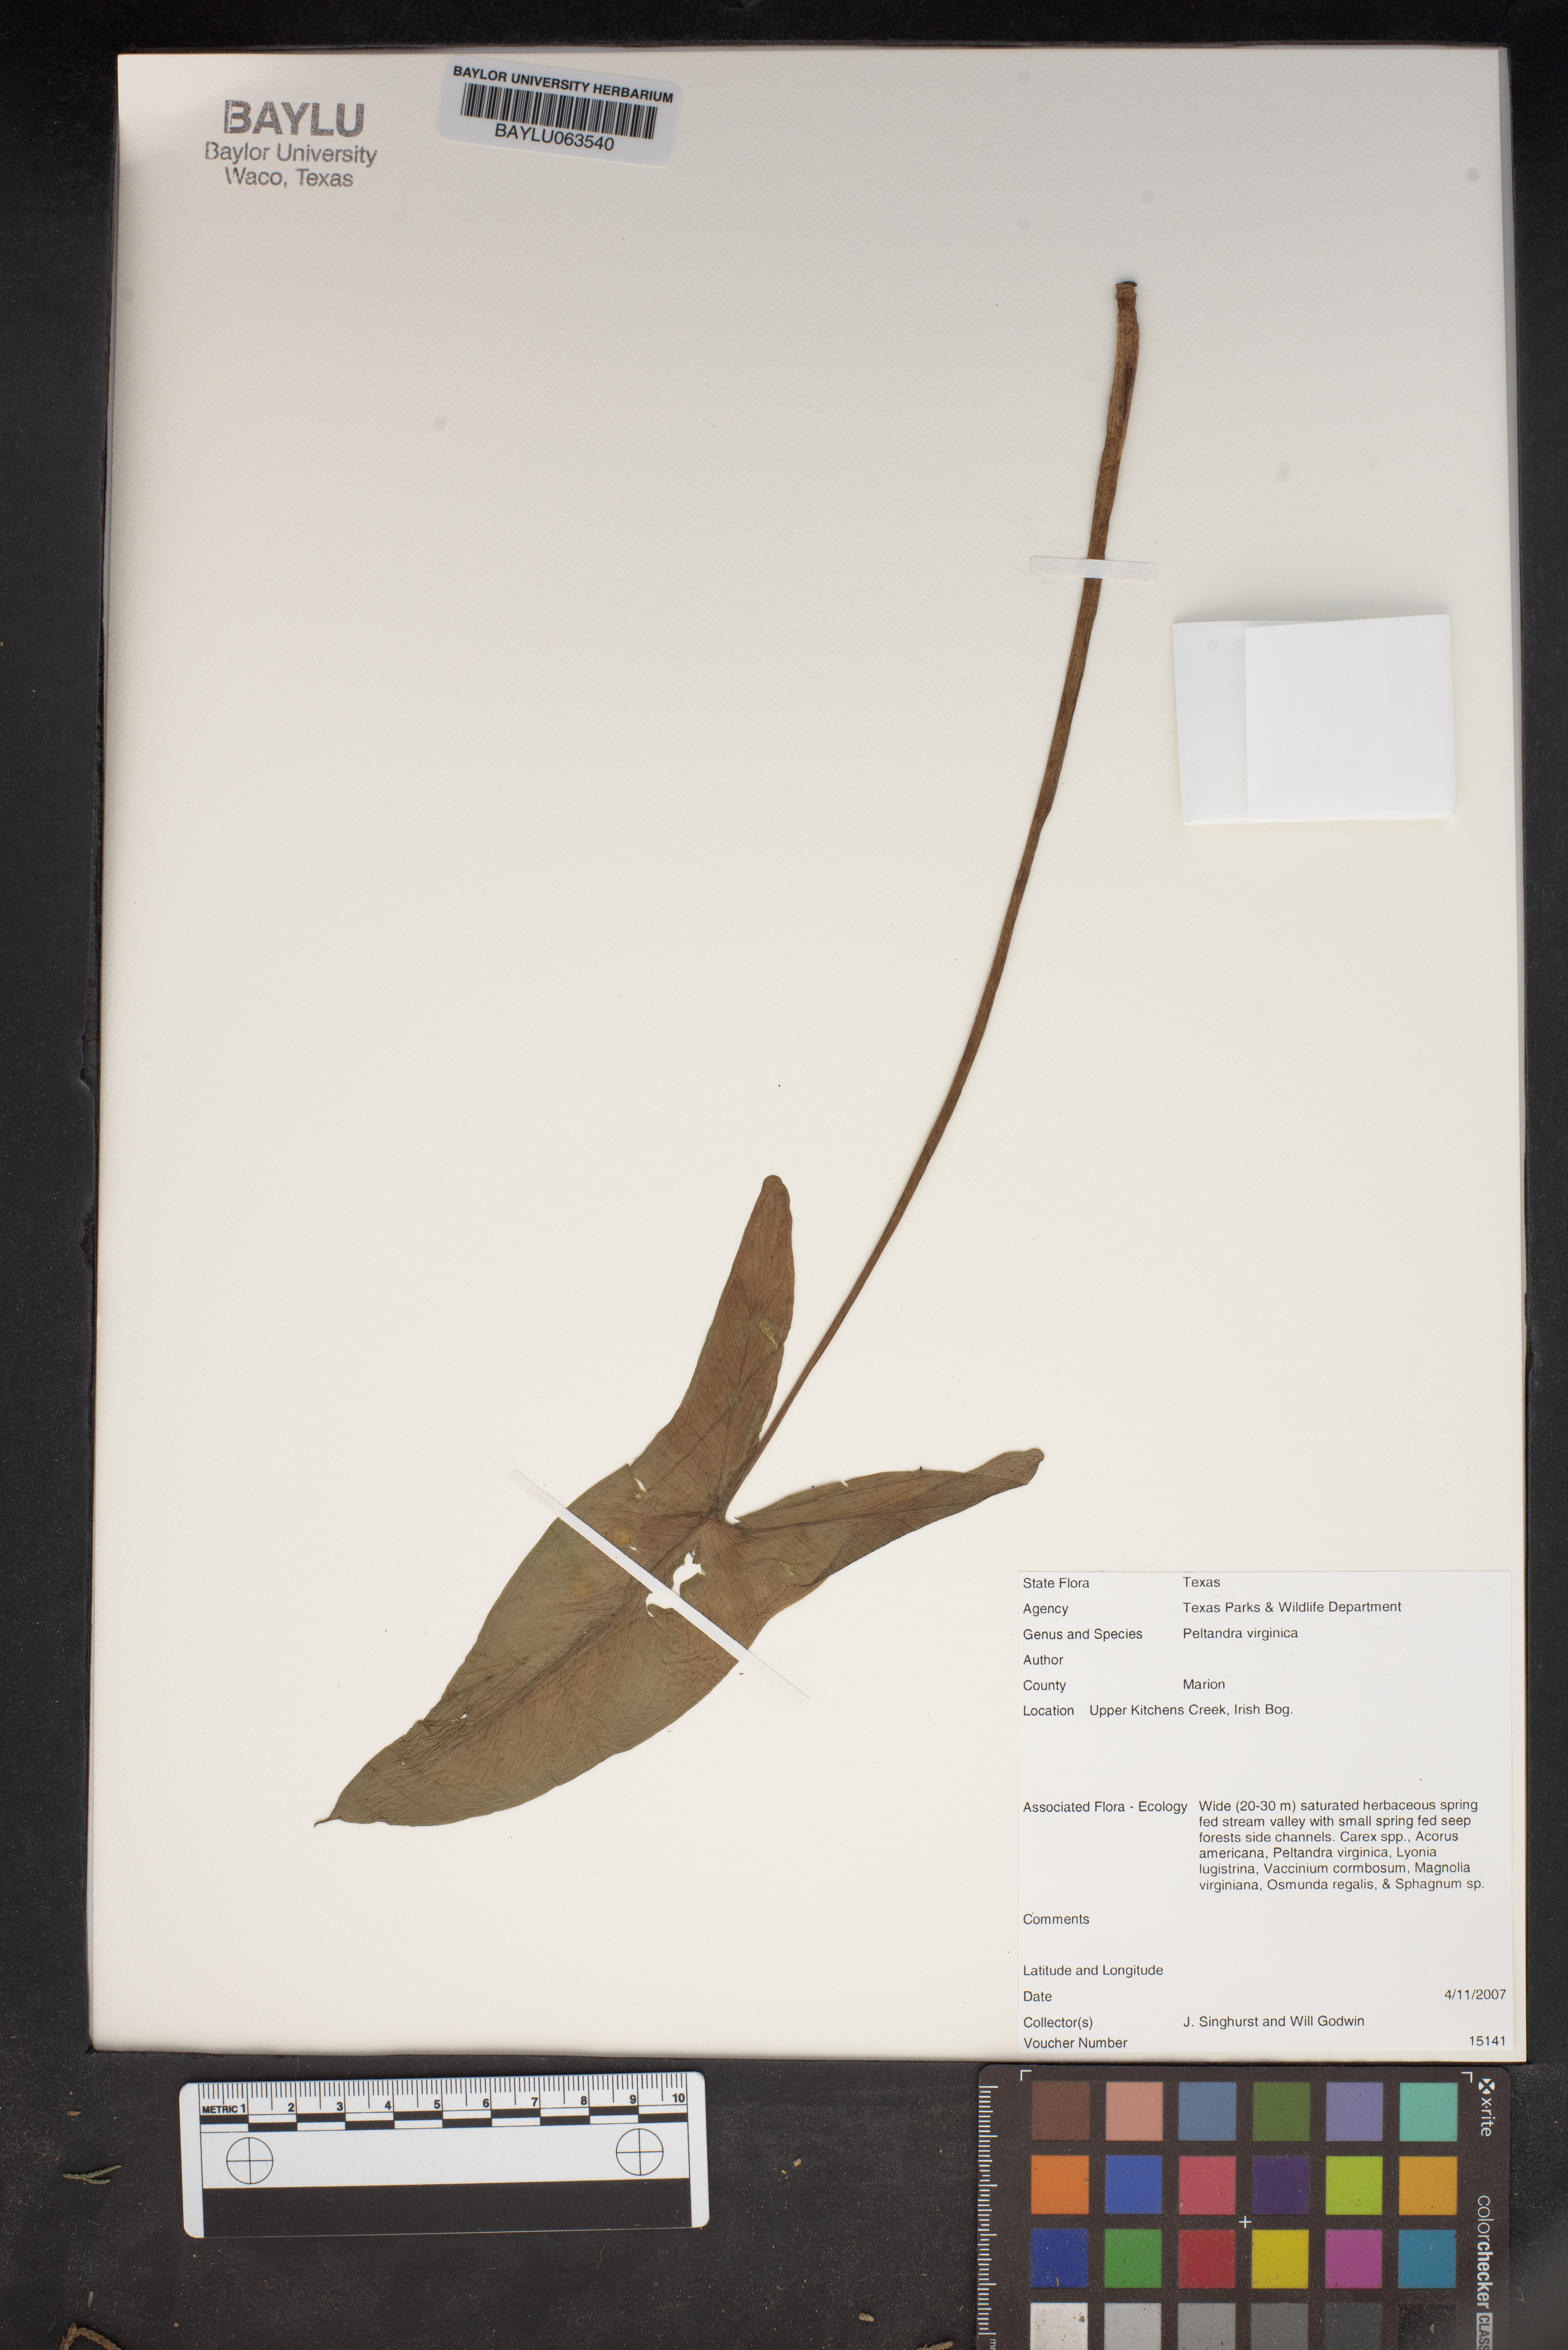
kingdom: Plantae
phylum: Tracheophyta
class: Liliopsida
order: Alismatales
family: Araceae
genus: Peltandra
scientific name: Peltandra virginica
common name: Arrow arum
